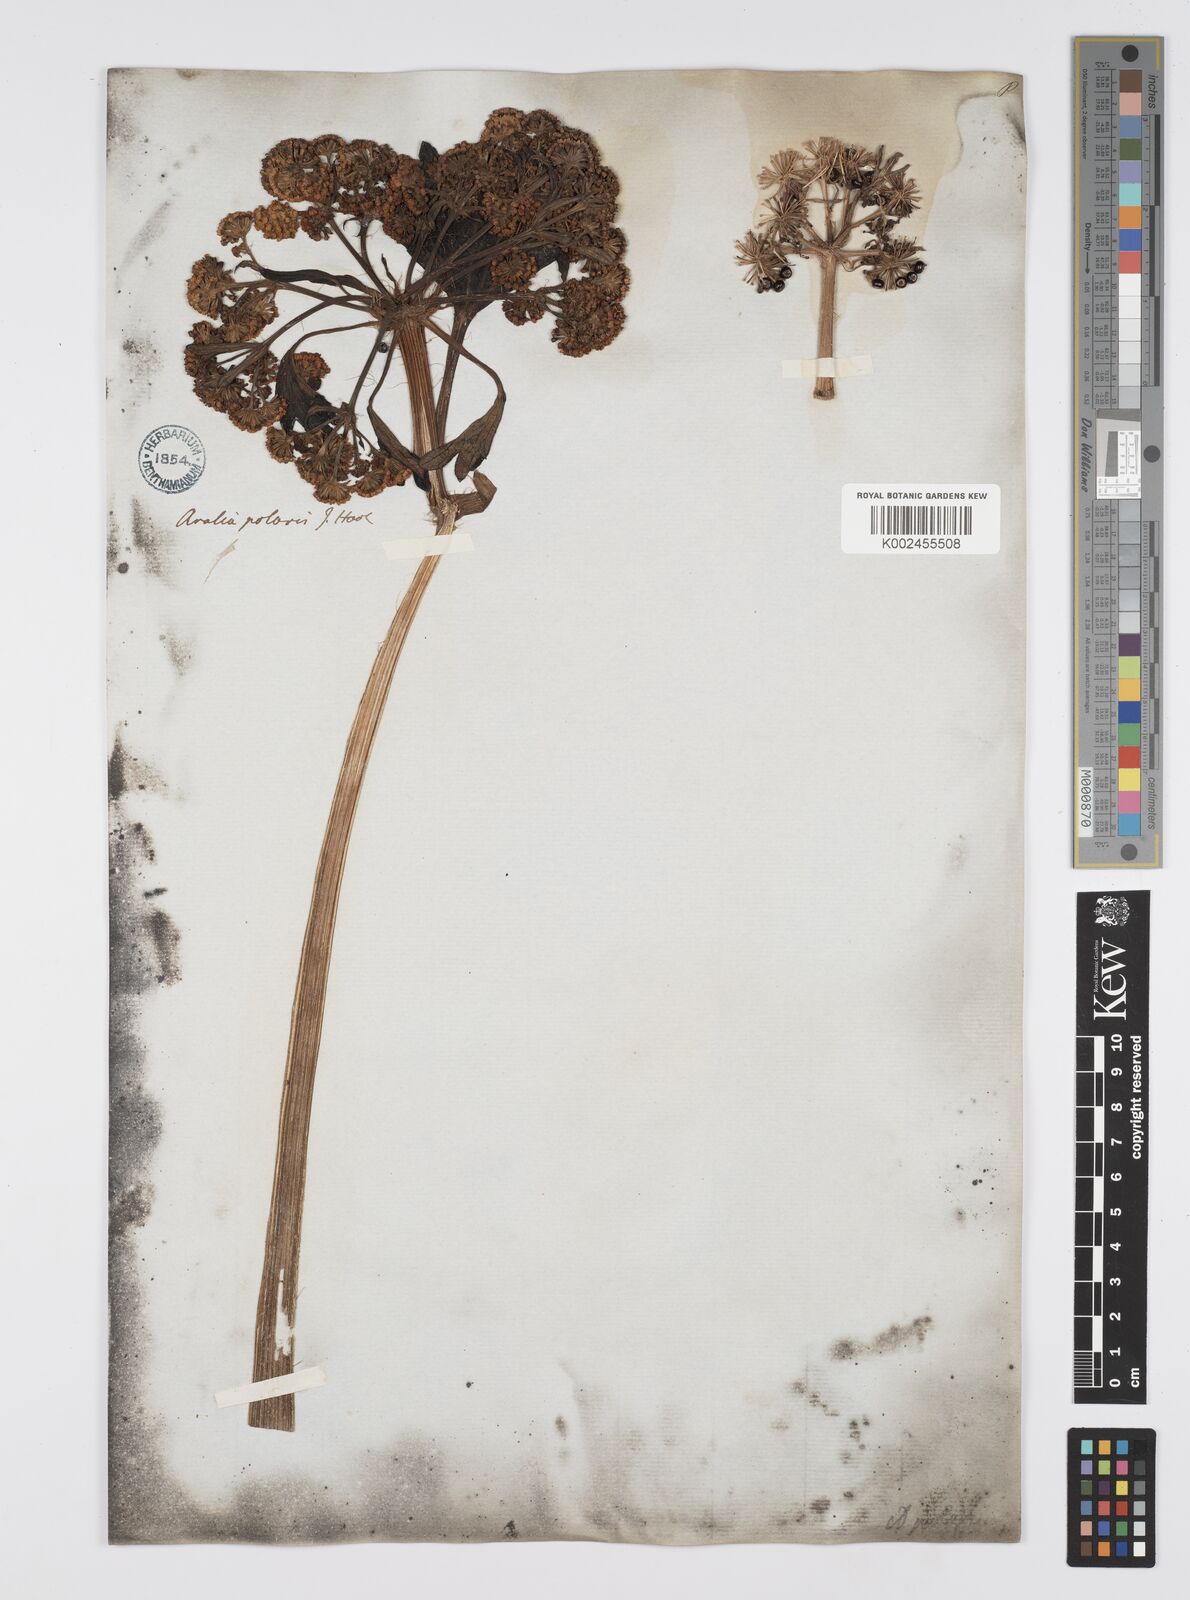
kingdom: Plantae
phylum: Tracheophyta
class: Magnoliopsida
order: Apiales
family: Araliaceae
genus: Stilbocarpa
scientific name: Stilbocarpa
